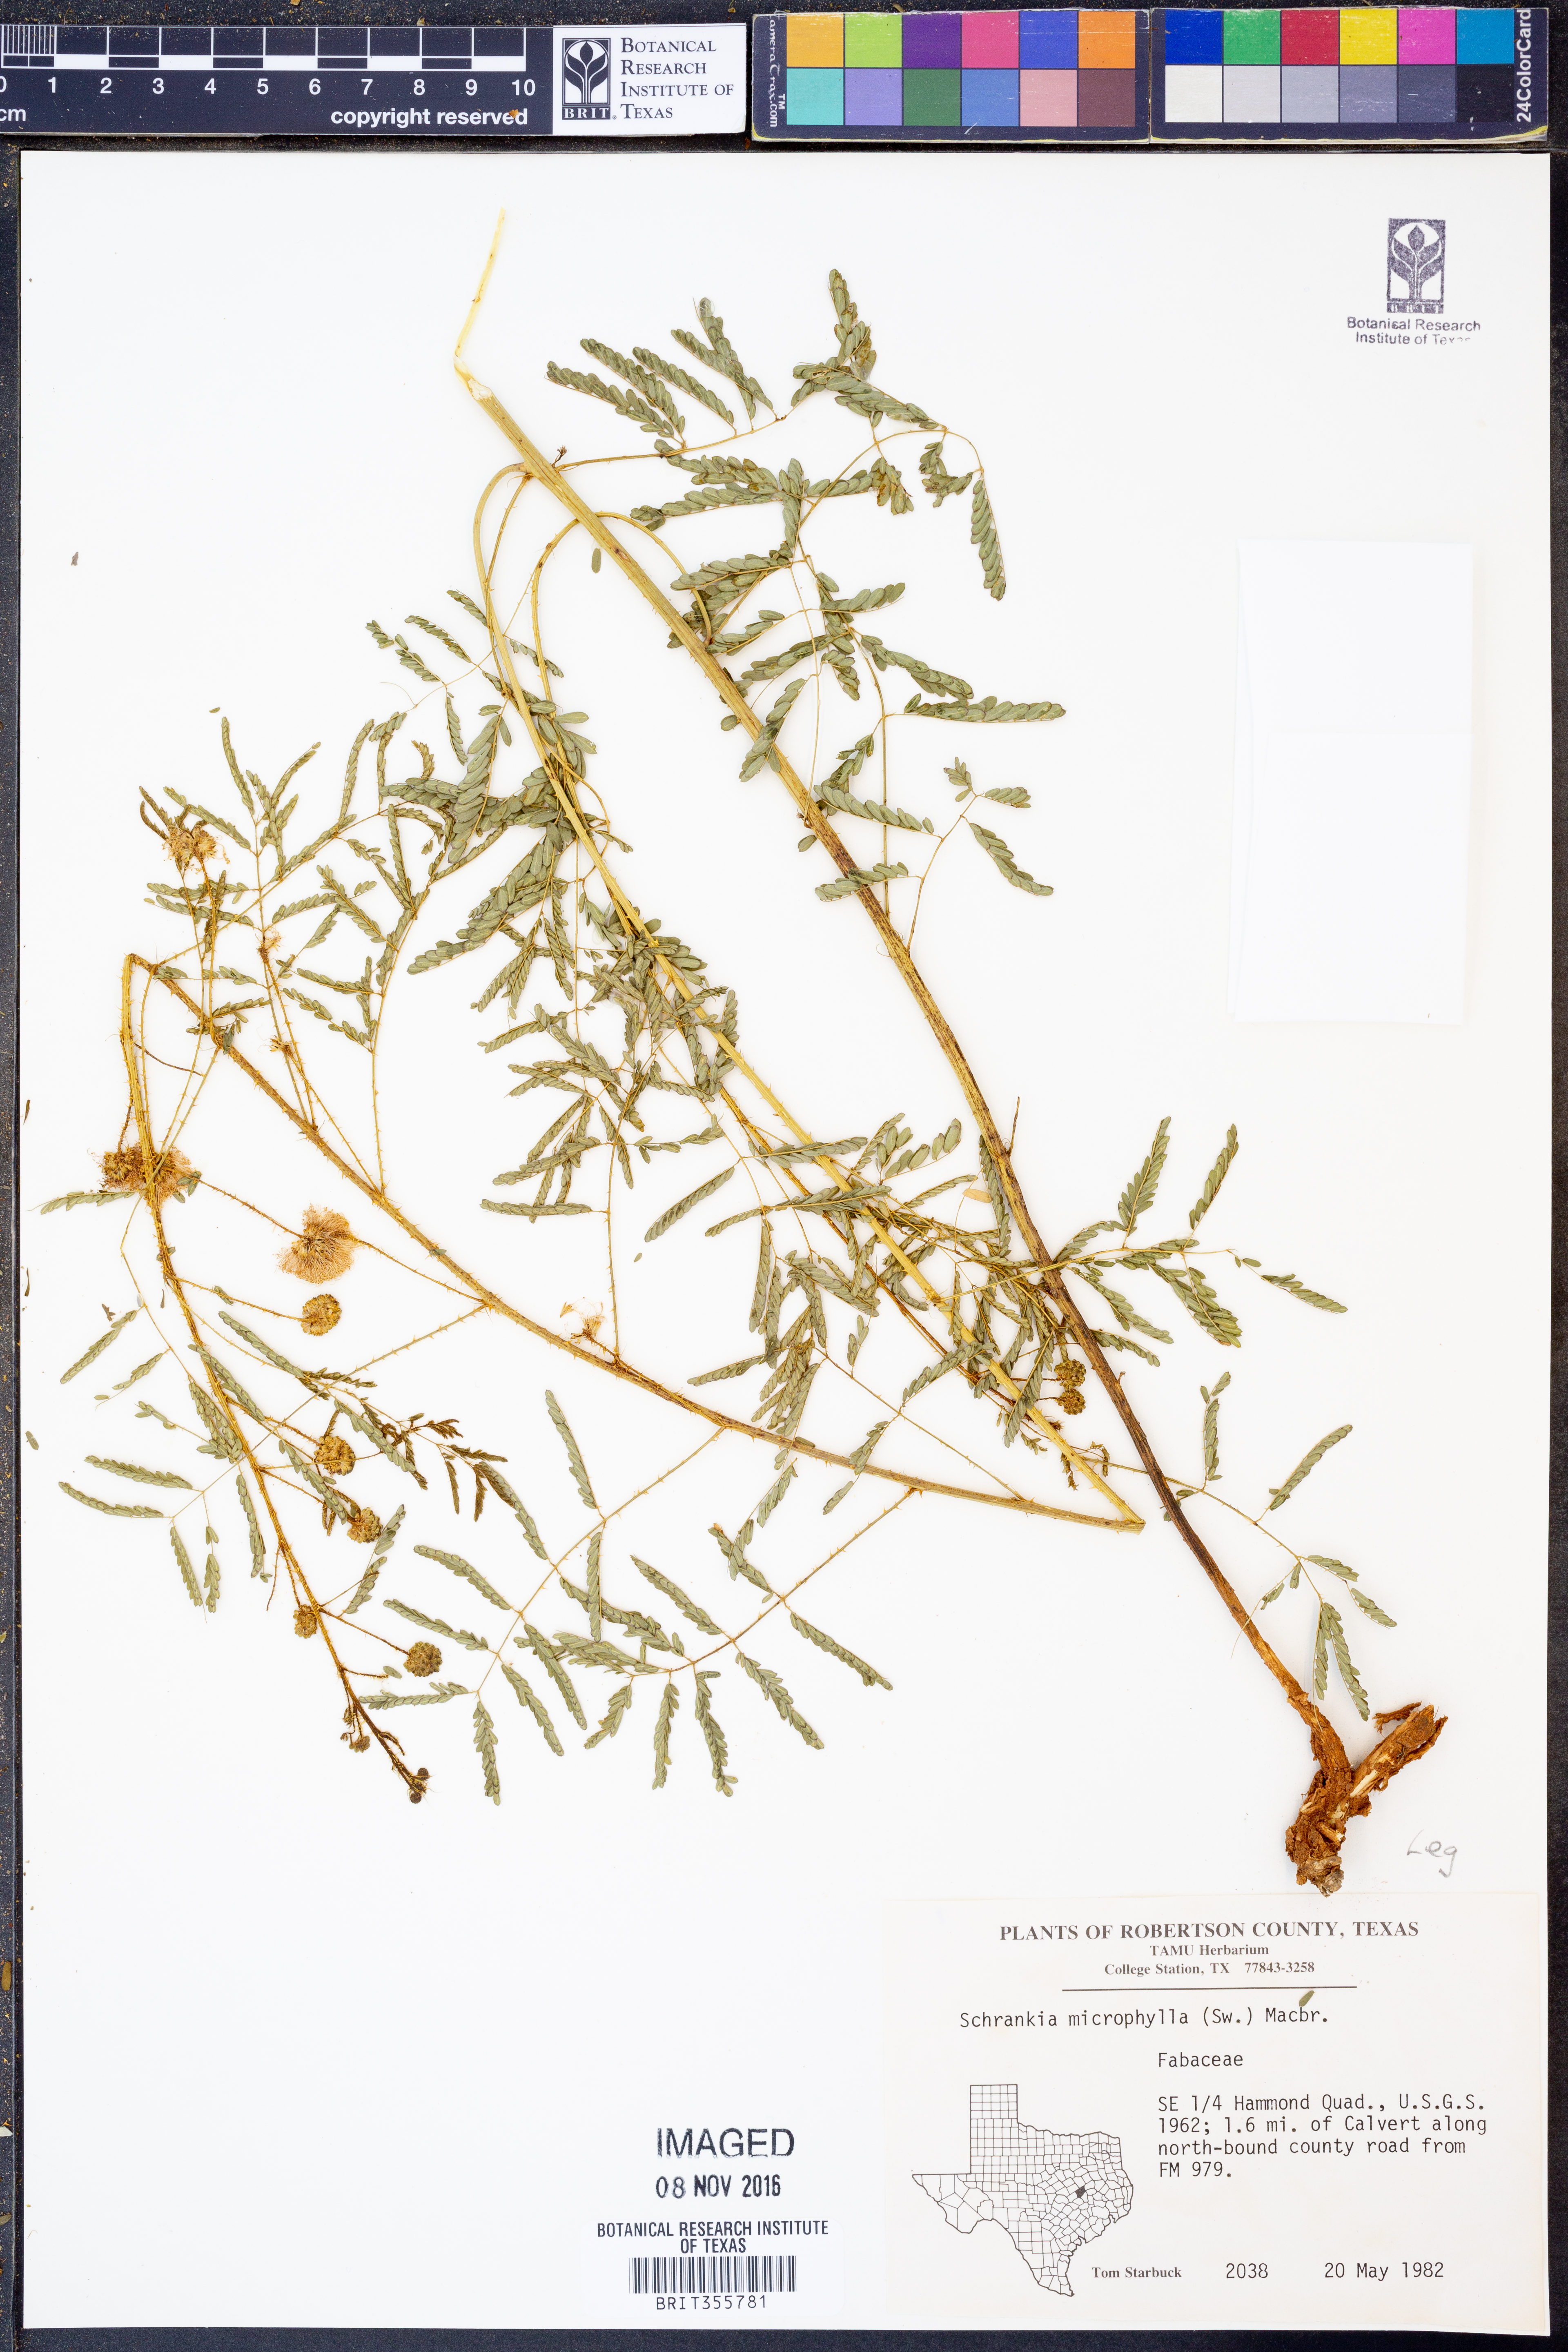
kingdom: Plantae
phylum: Tracheophyta
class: Magnoliopsida
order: Fabales
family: Fabaceae
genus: Mimosa
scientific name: Mimosa quadrivalvis
